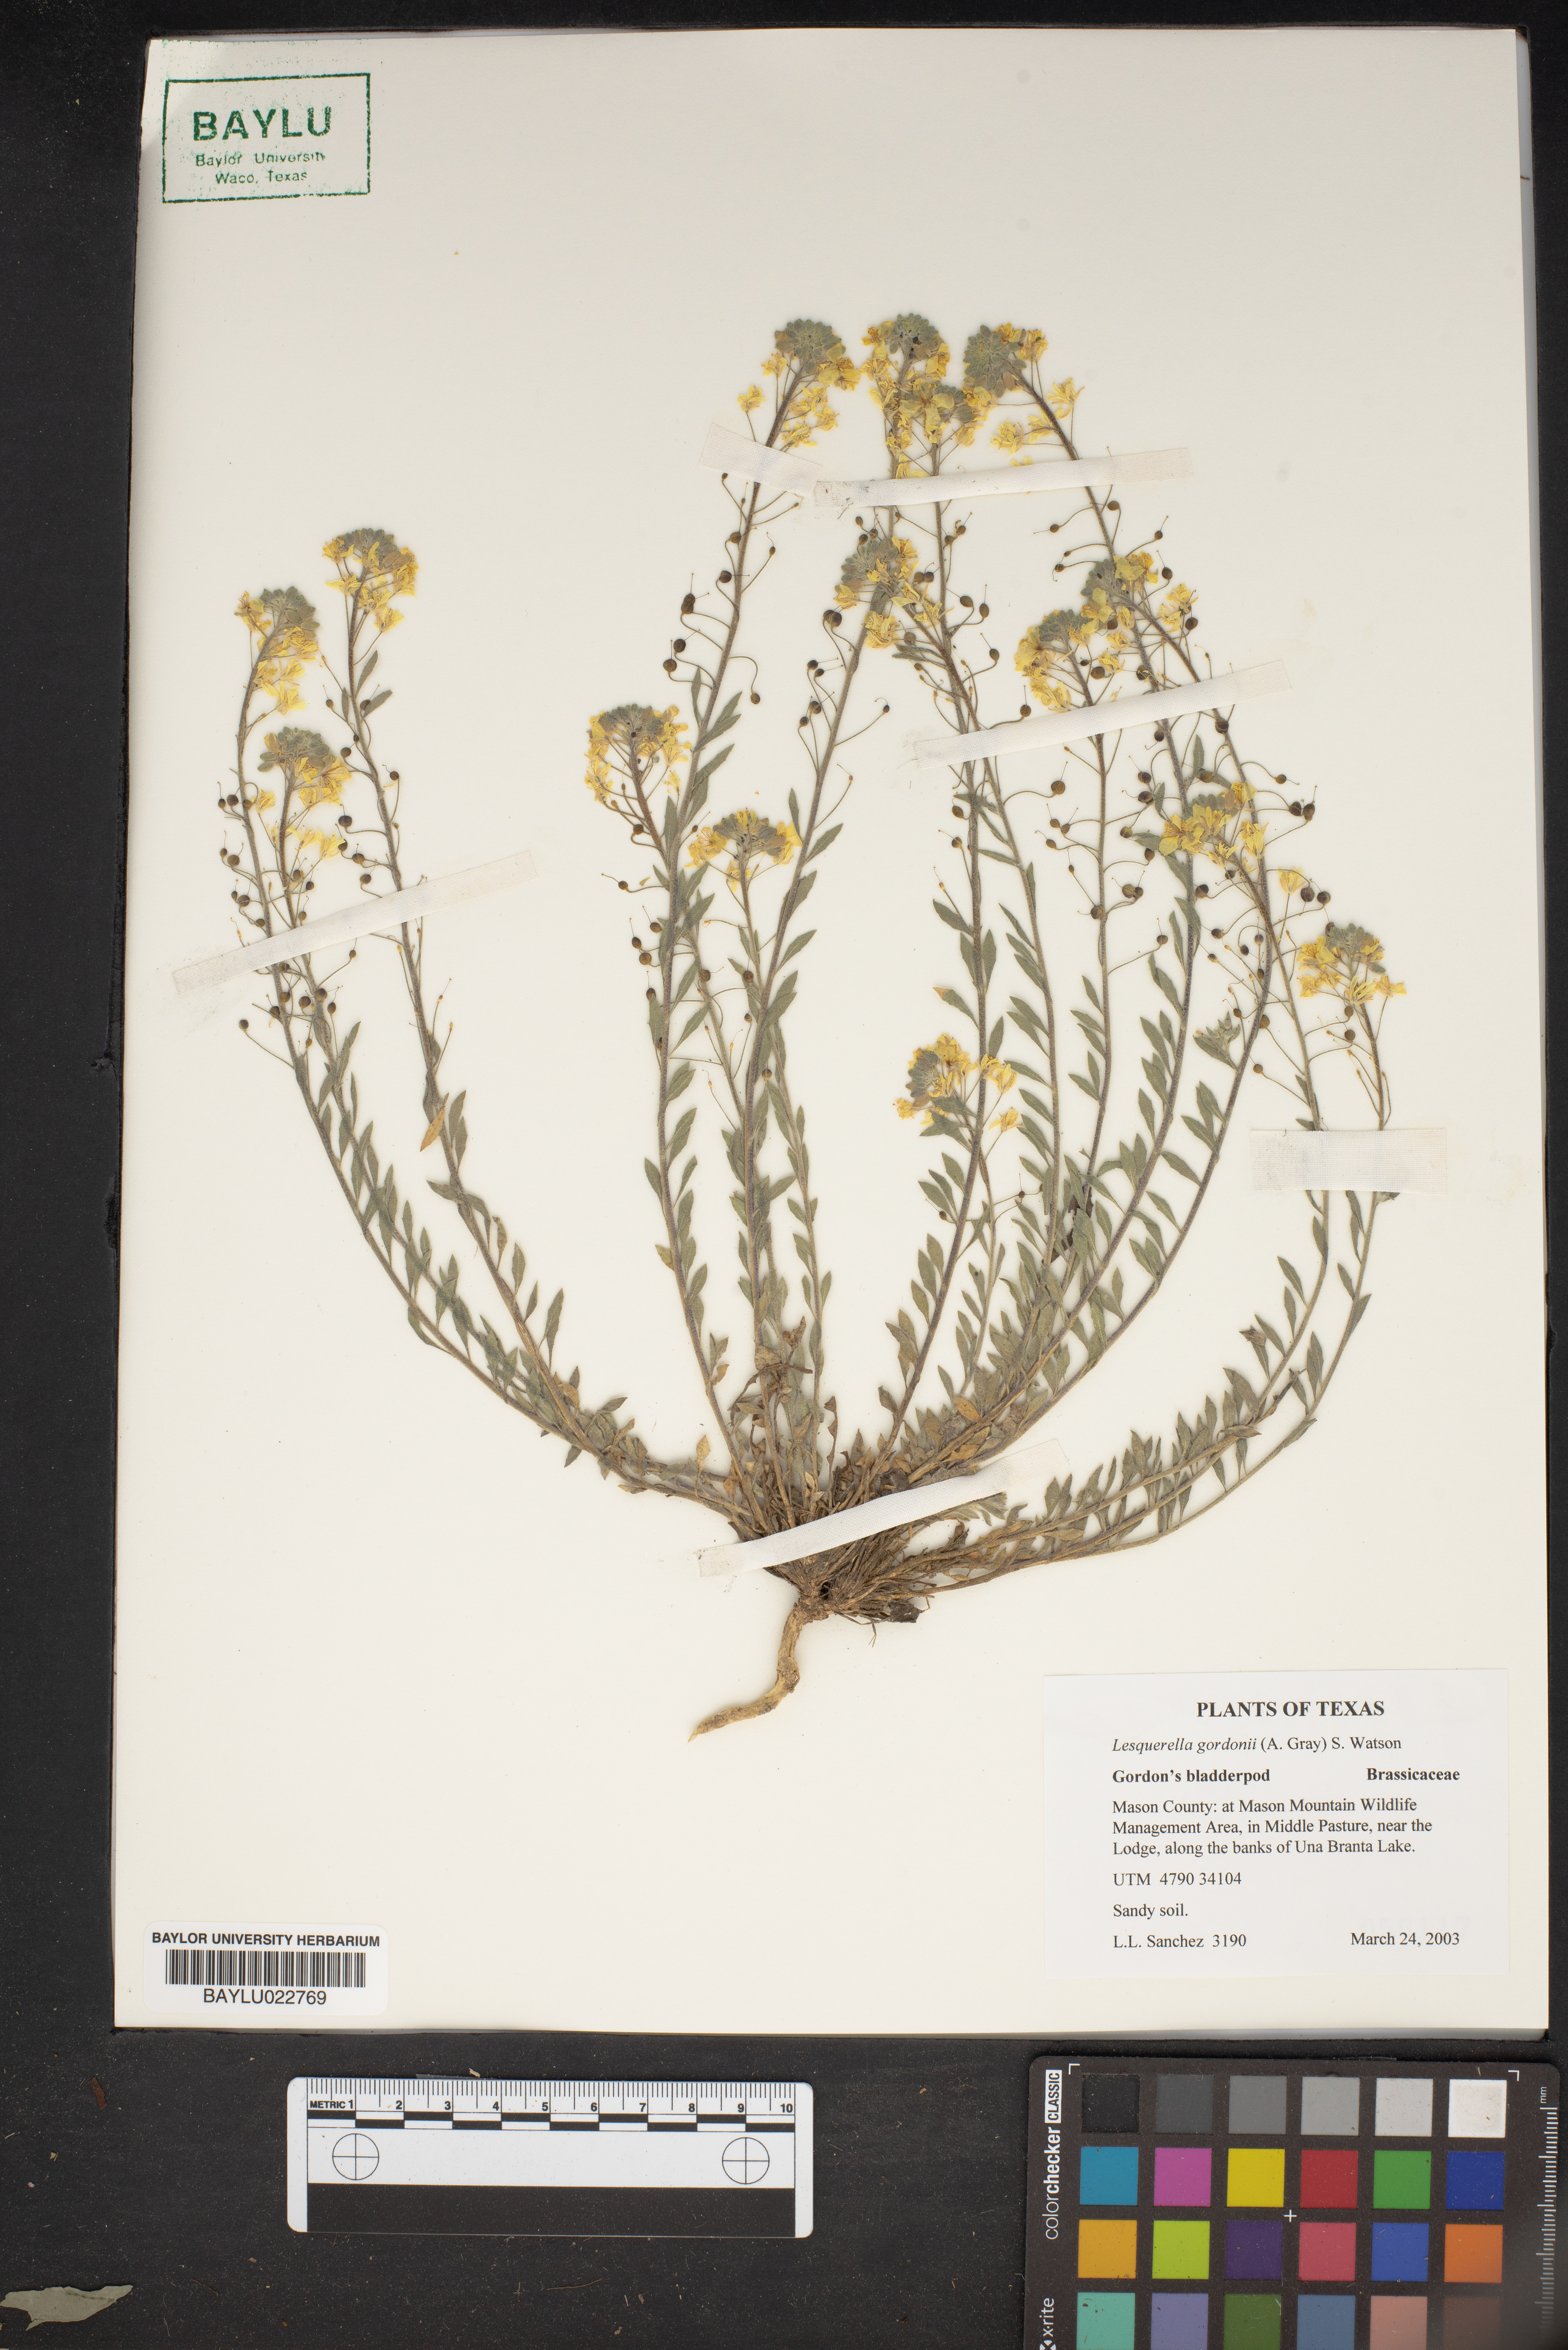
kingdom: Plantae
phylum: Tracheophyta
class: Magnoliopsida
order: Brassicales
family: Brassicaceae
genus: Physaria
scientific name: Physaria gordonii
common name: Gordon's bladderpod
